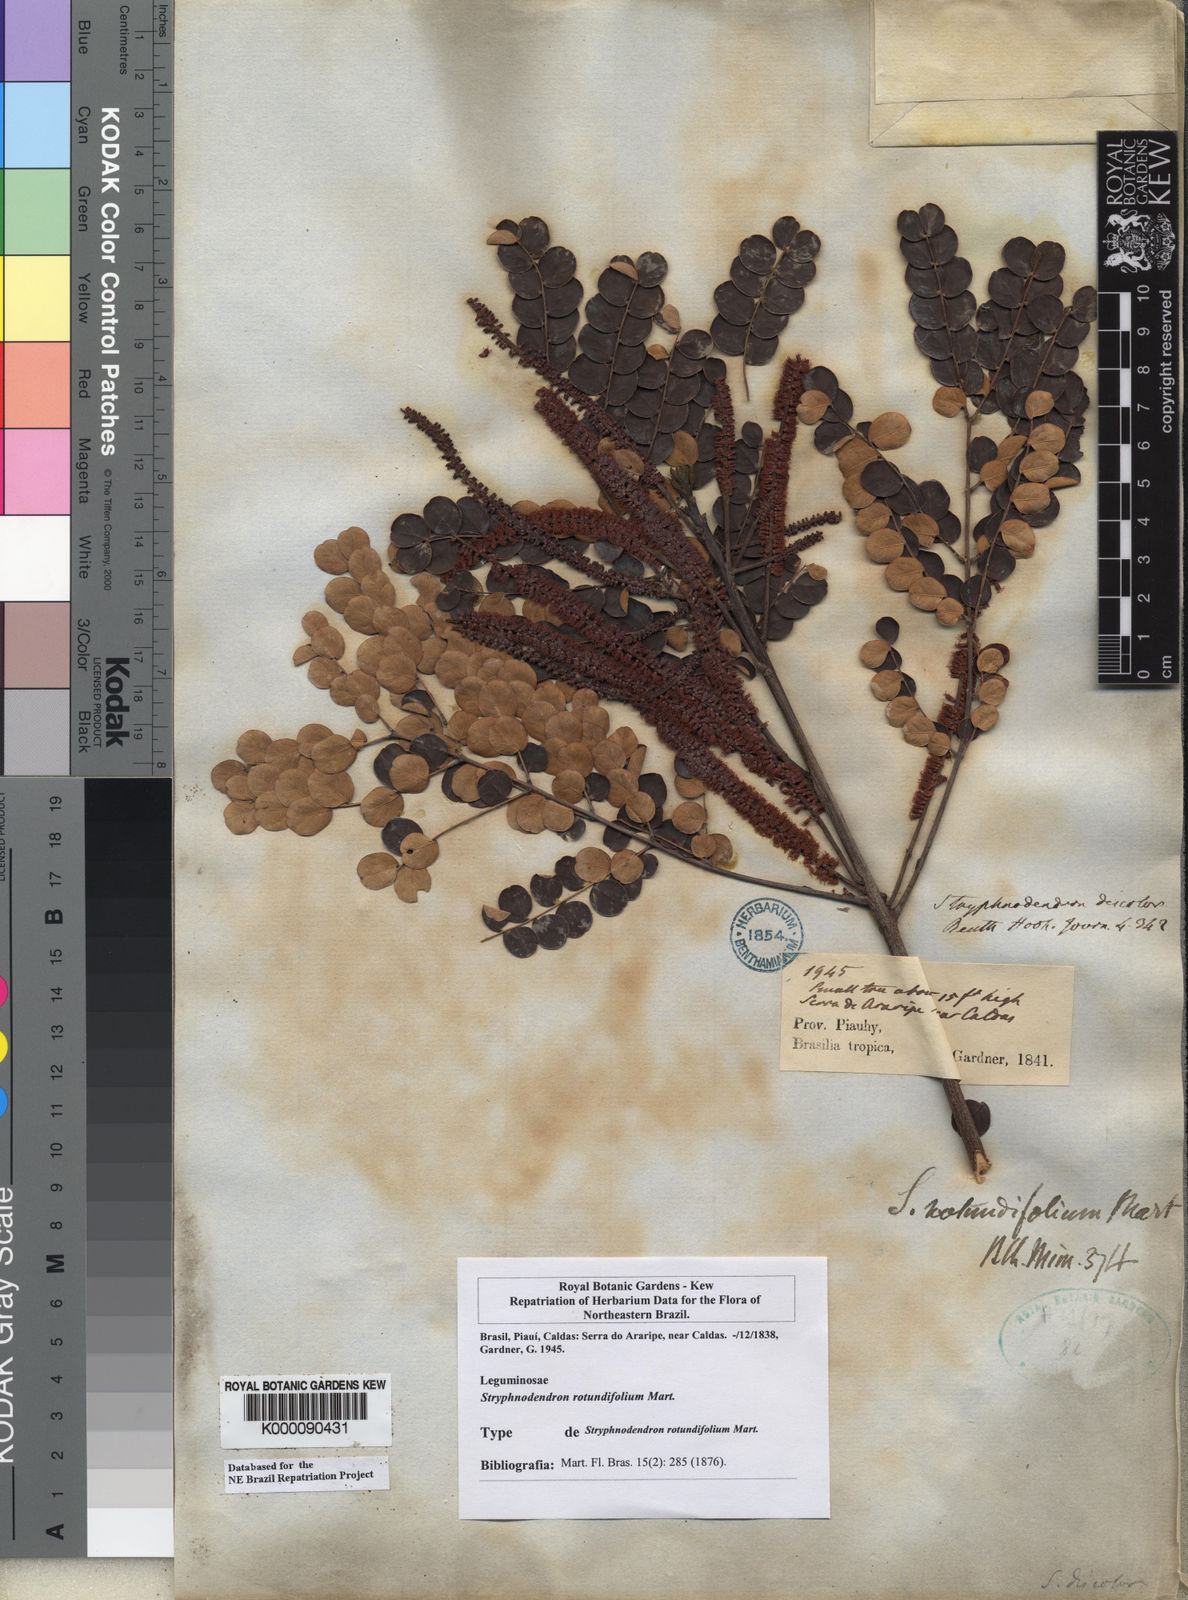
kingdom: Plantae
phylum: Tracheophyta
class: Magnoliopsida
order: Fabales
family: Fabaceae
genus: Stryphnodendron
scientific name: Stryphnodendron rotundifolium
